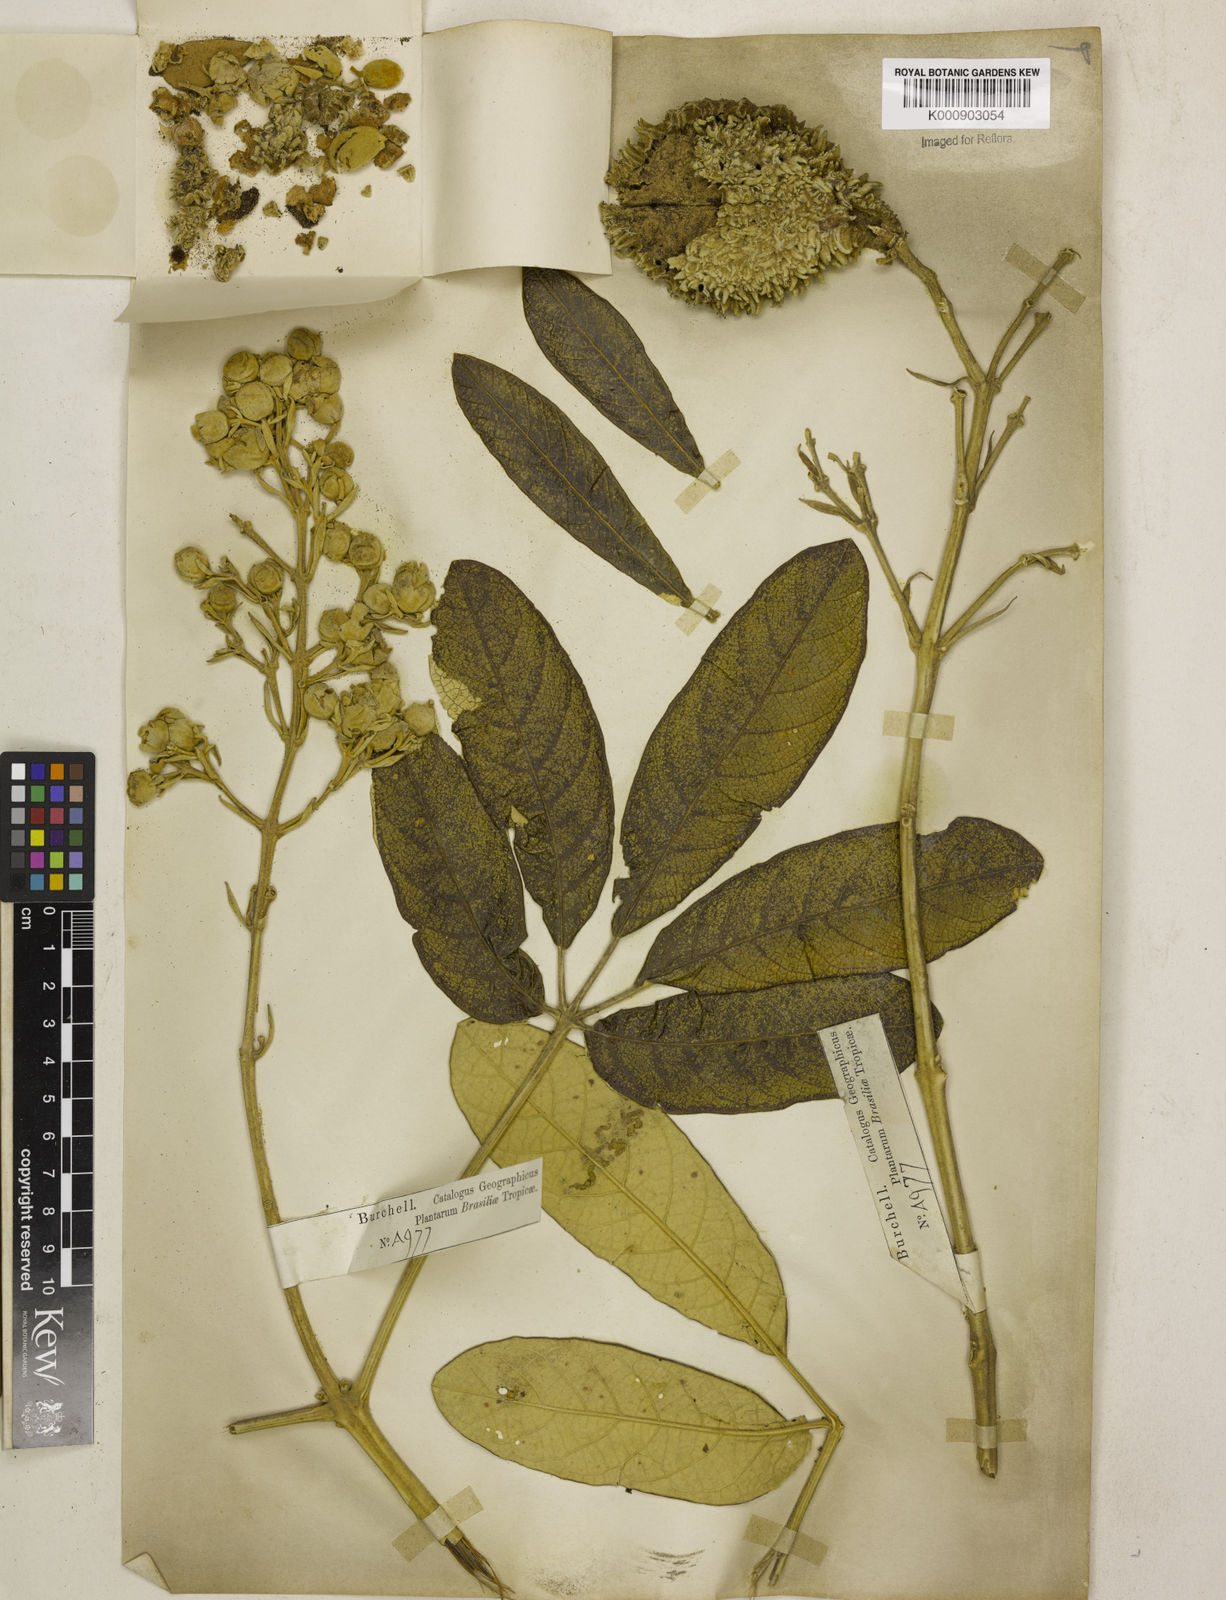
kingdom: Plantae
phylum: Tracheophyta
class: Magnoliopsida
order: Lamiales
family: Bignoniaceae
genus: Zeyheria
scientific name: Zeyheria
